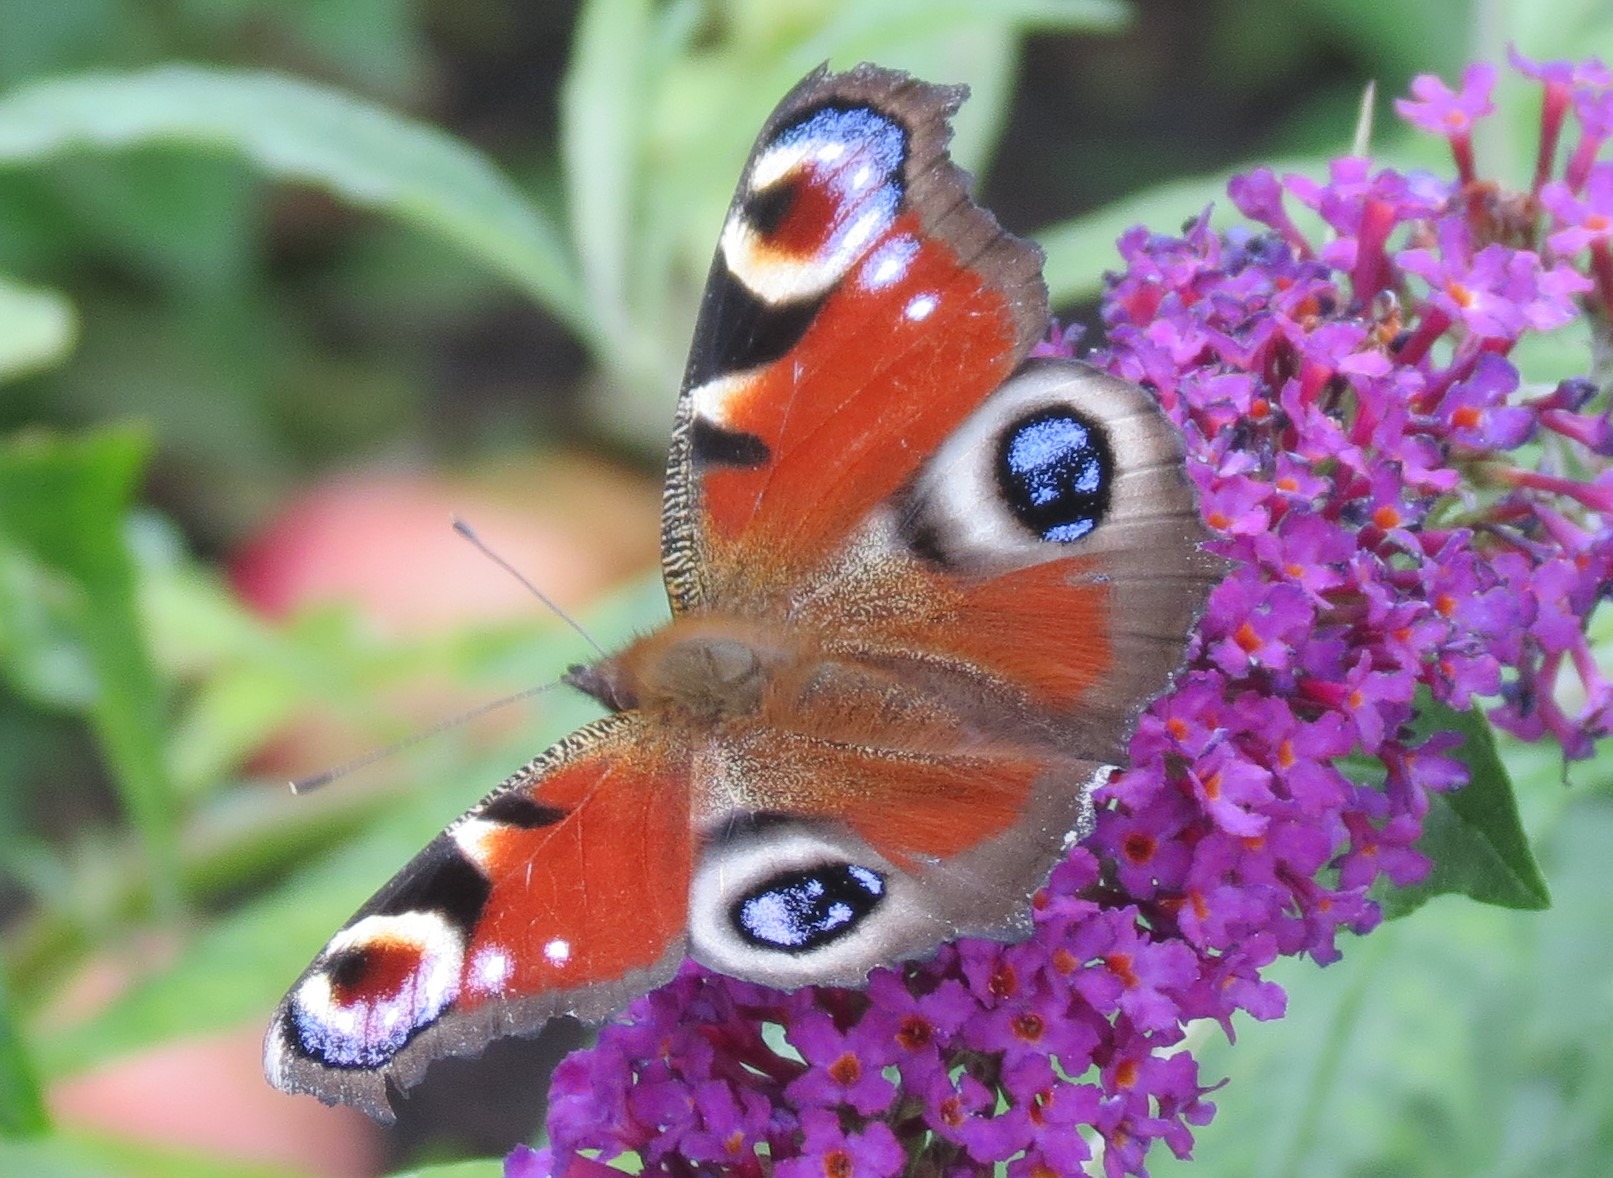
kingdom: Animalia
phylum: Arthropoda
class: Insecta
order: Lepidoptera
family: Nymphalidae
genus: Aglais
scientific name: Aglais io
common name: Dagpåfugleøje
